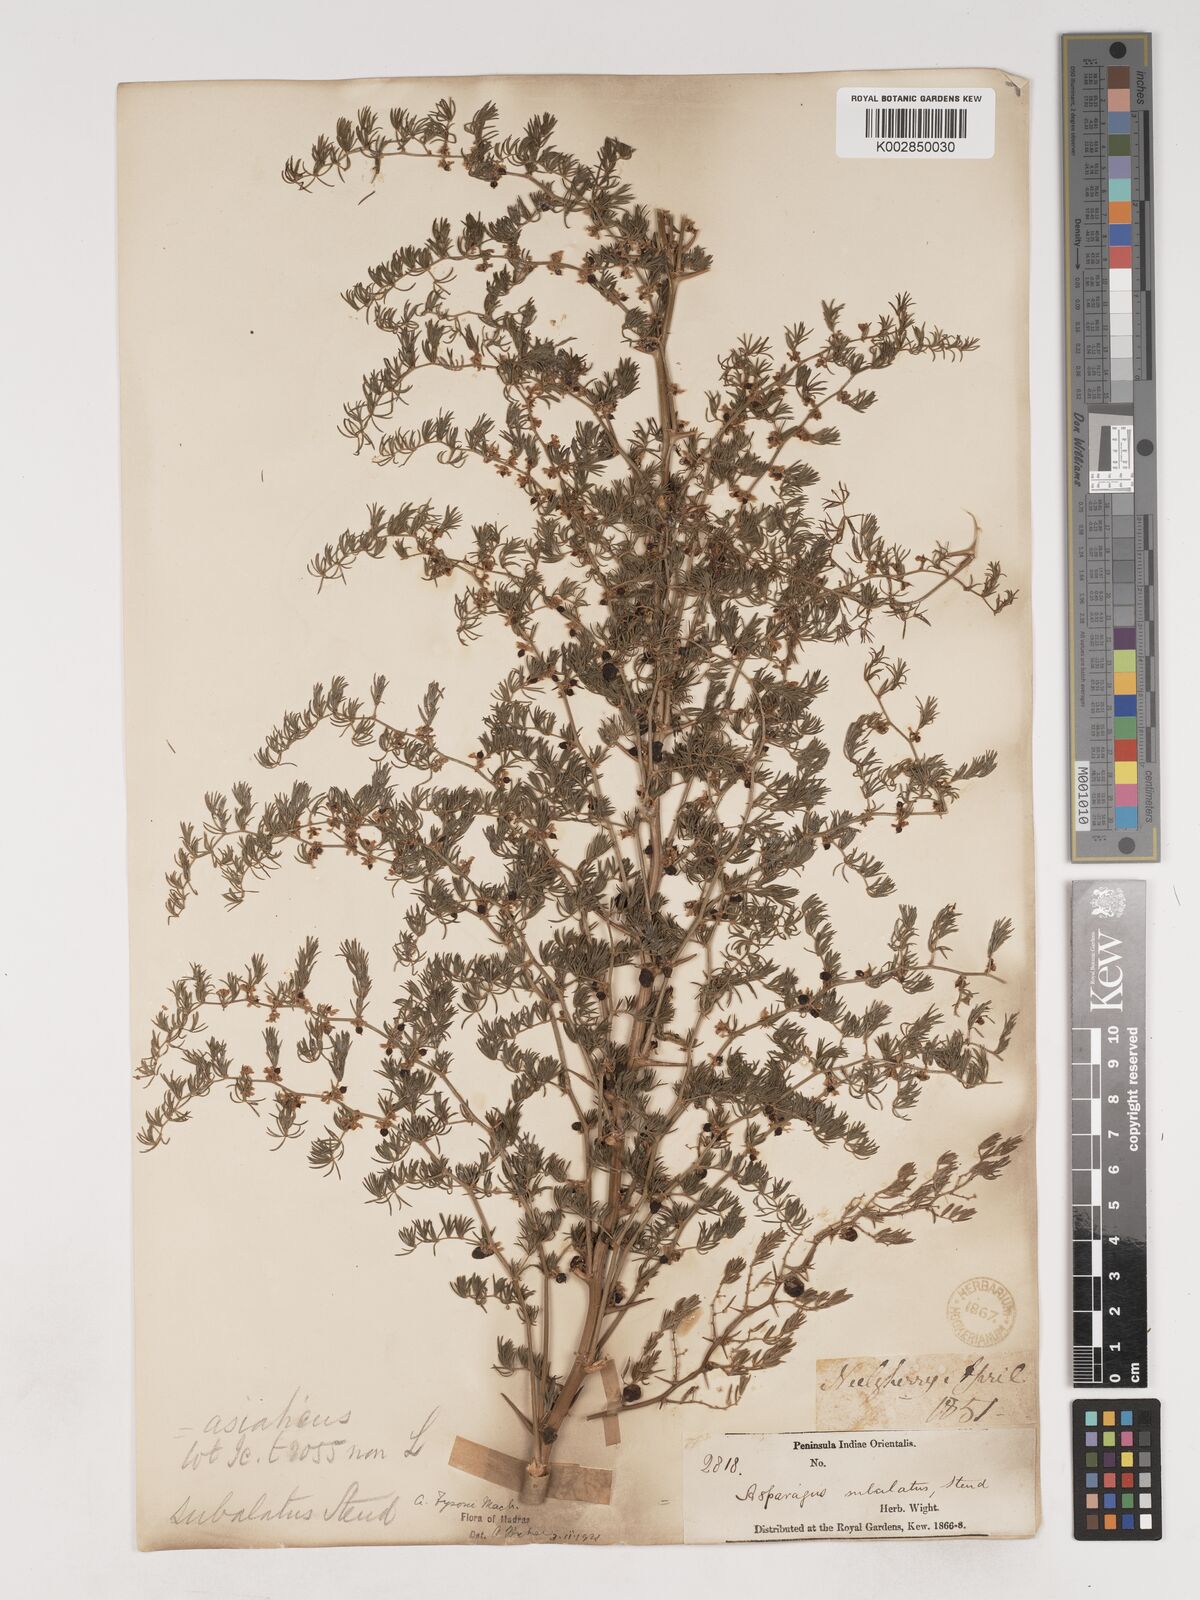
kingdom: Plantae
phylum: Tracheophyta
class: Liliopsida
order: Asparagales
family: Asparagaceae
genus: Asparagus
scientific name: Asparagus fysonii
